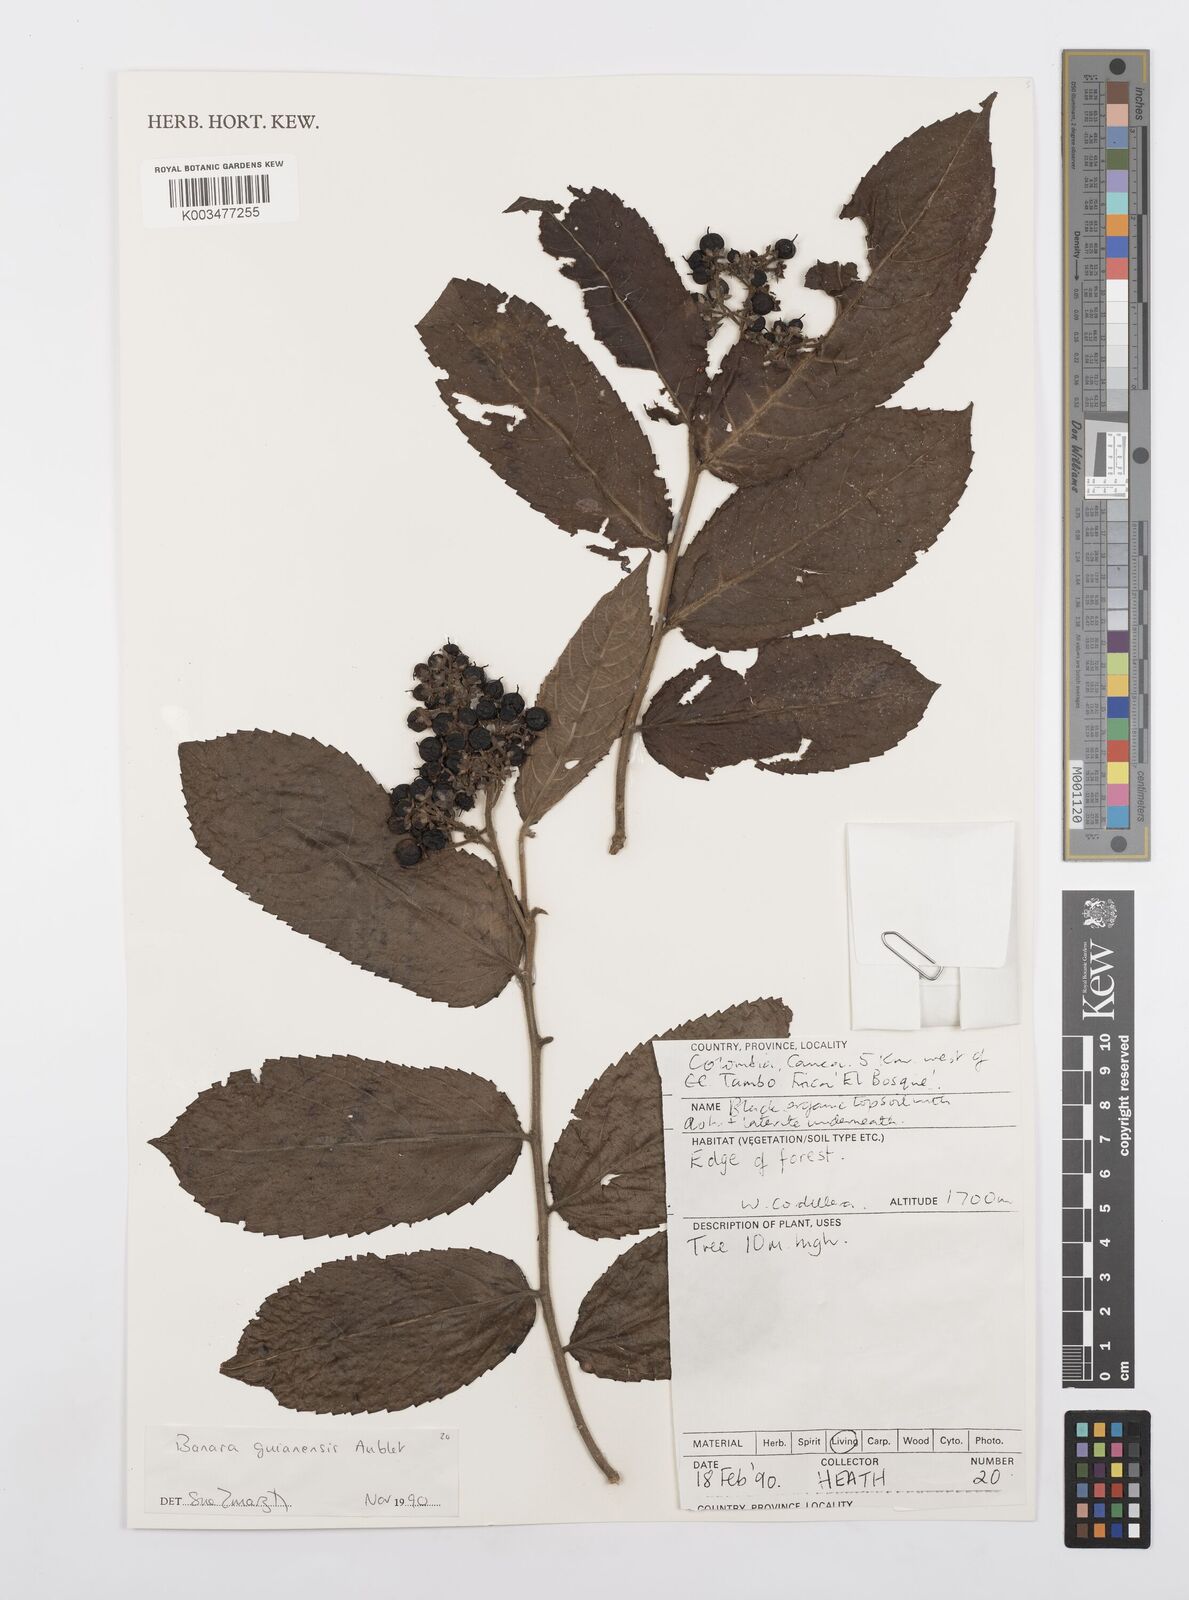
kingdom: Plantae
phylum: Tracheophyta
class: Magnoliopsida
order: Malpighiales
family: Salicaceae
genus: Banara
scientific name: Banara guianensis
